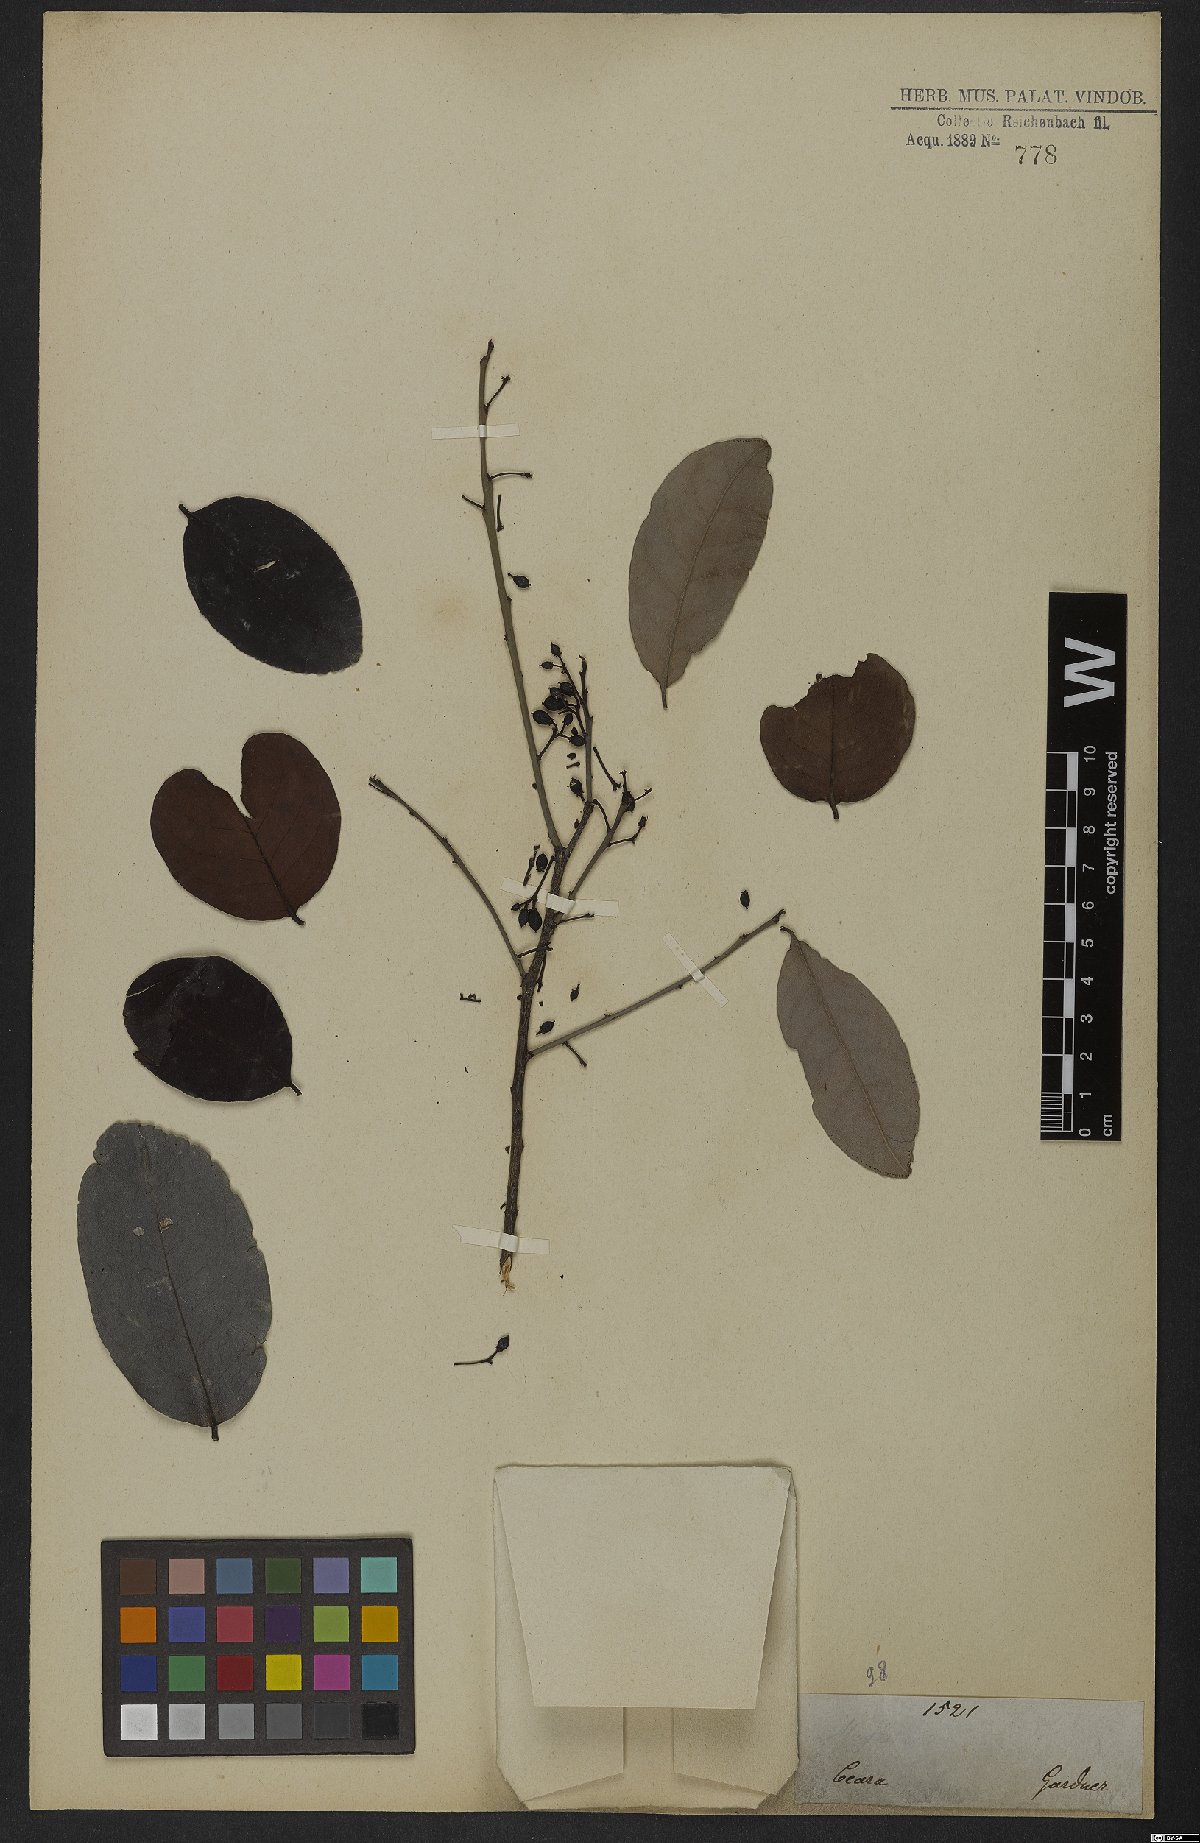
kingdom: Plantae
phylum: Tracheophyta
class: Magnoliopsida
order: Celastrales
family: Celastraceae
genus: Maytenus
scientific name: Maytenus
